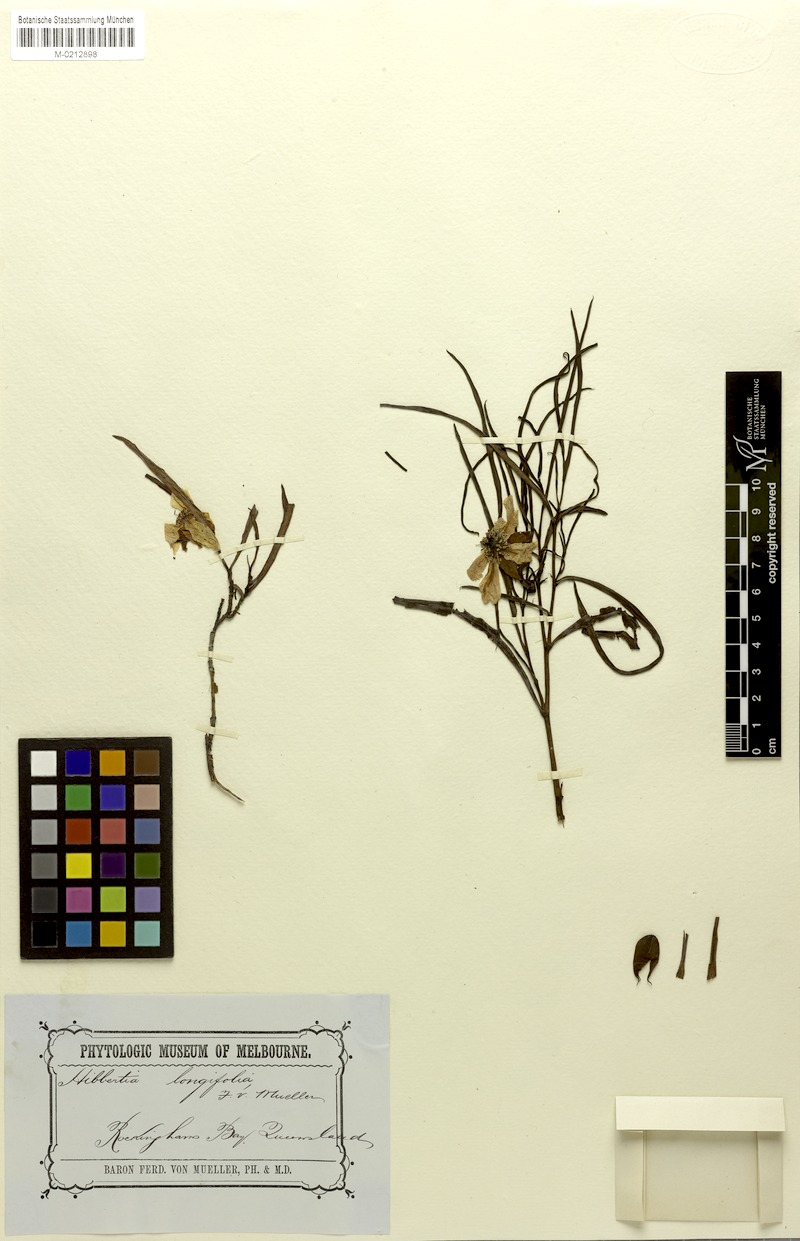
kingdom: Plantae
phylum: Tracheophyta
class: Magnoliopsida
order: Dilleniales
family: Dilleniaceae
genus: Hibbertia
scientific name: Hibbertia longifolia
